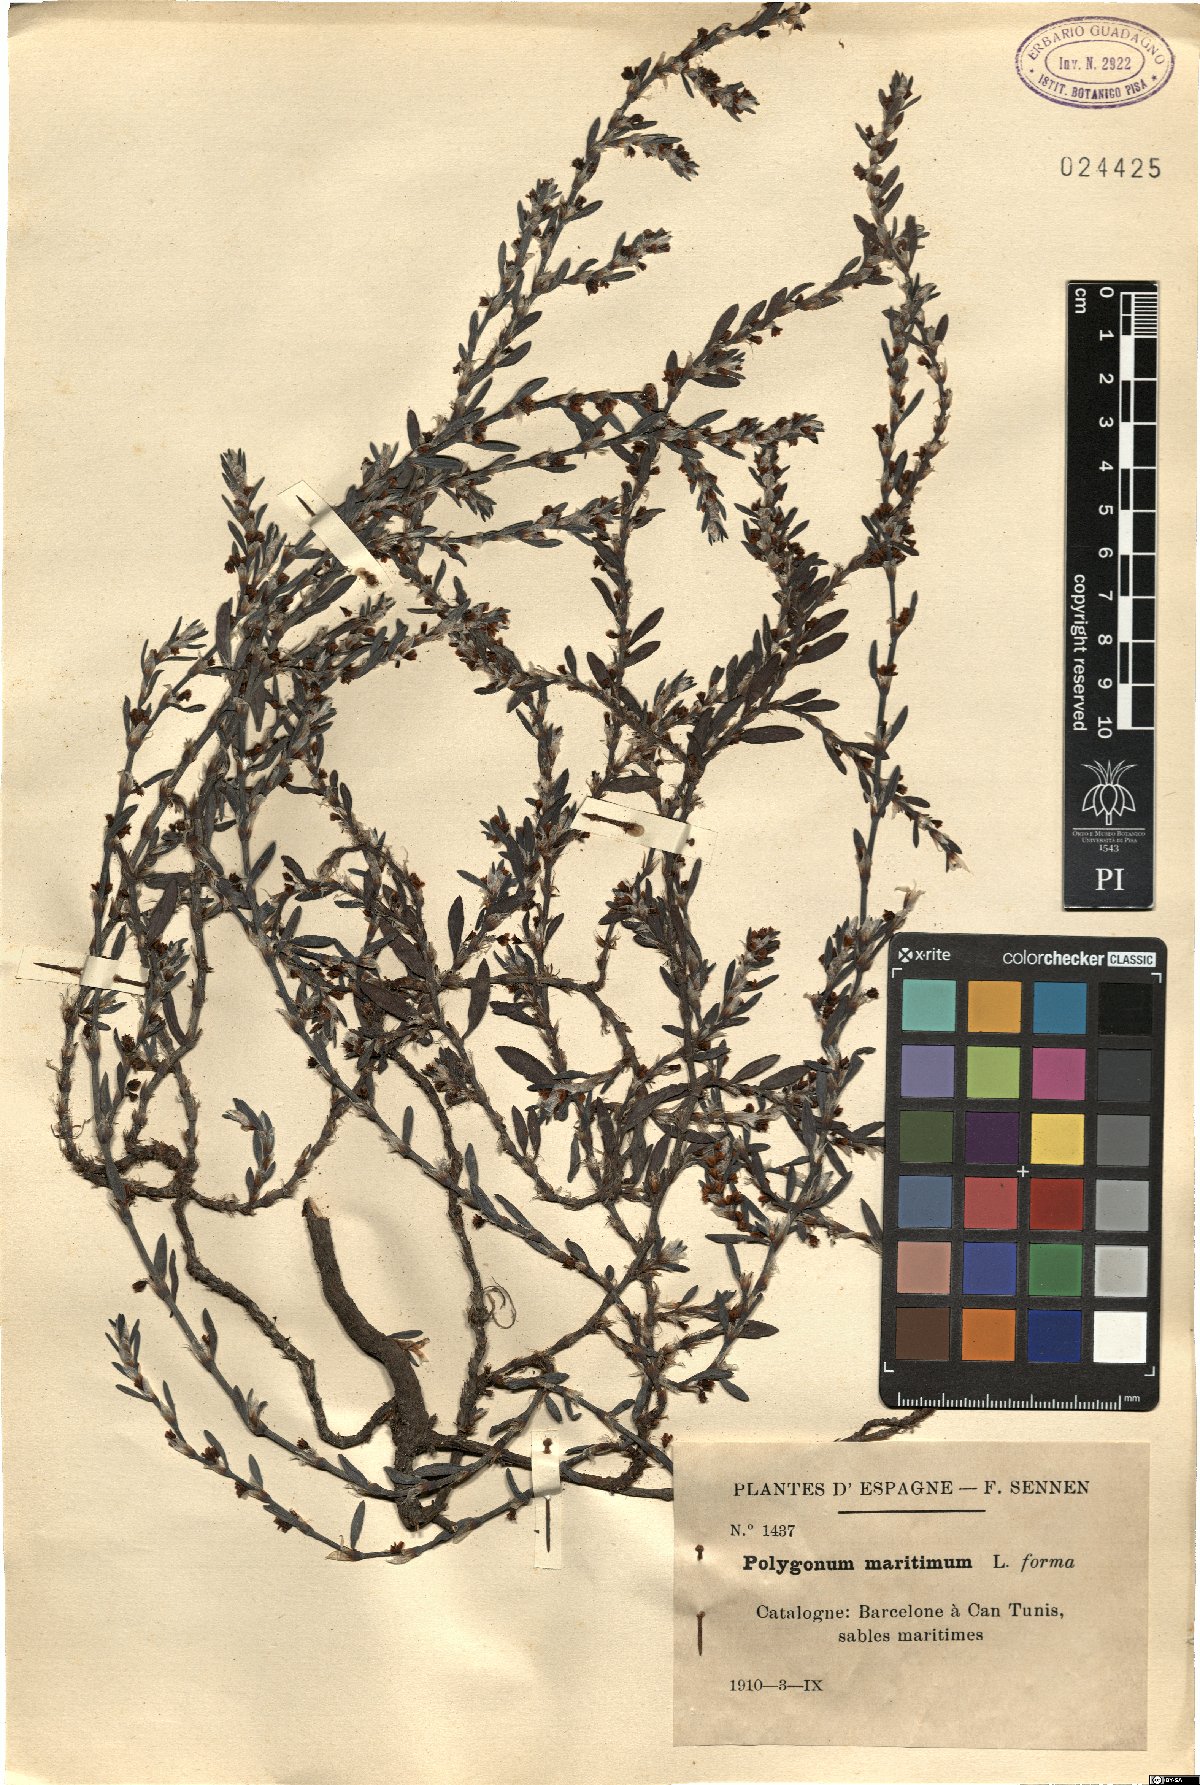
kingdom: Plantae
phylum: Tracheophyta
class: Magnoliopsida
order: Caryophyllales
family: Polygonaceae
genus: Polygonum
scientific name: Polygonum maritimum
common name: Sea knotgrass
